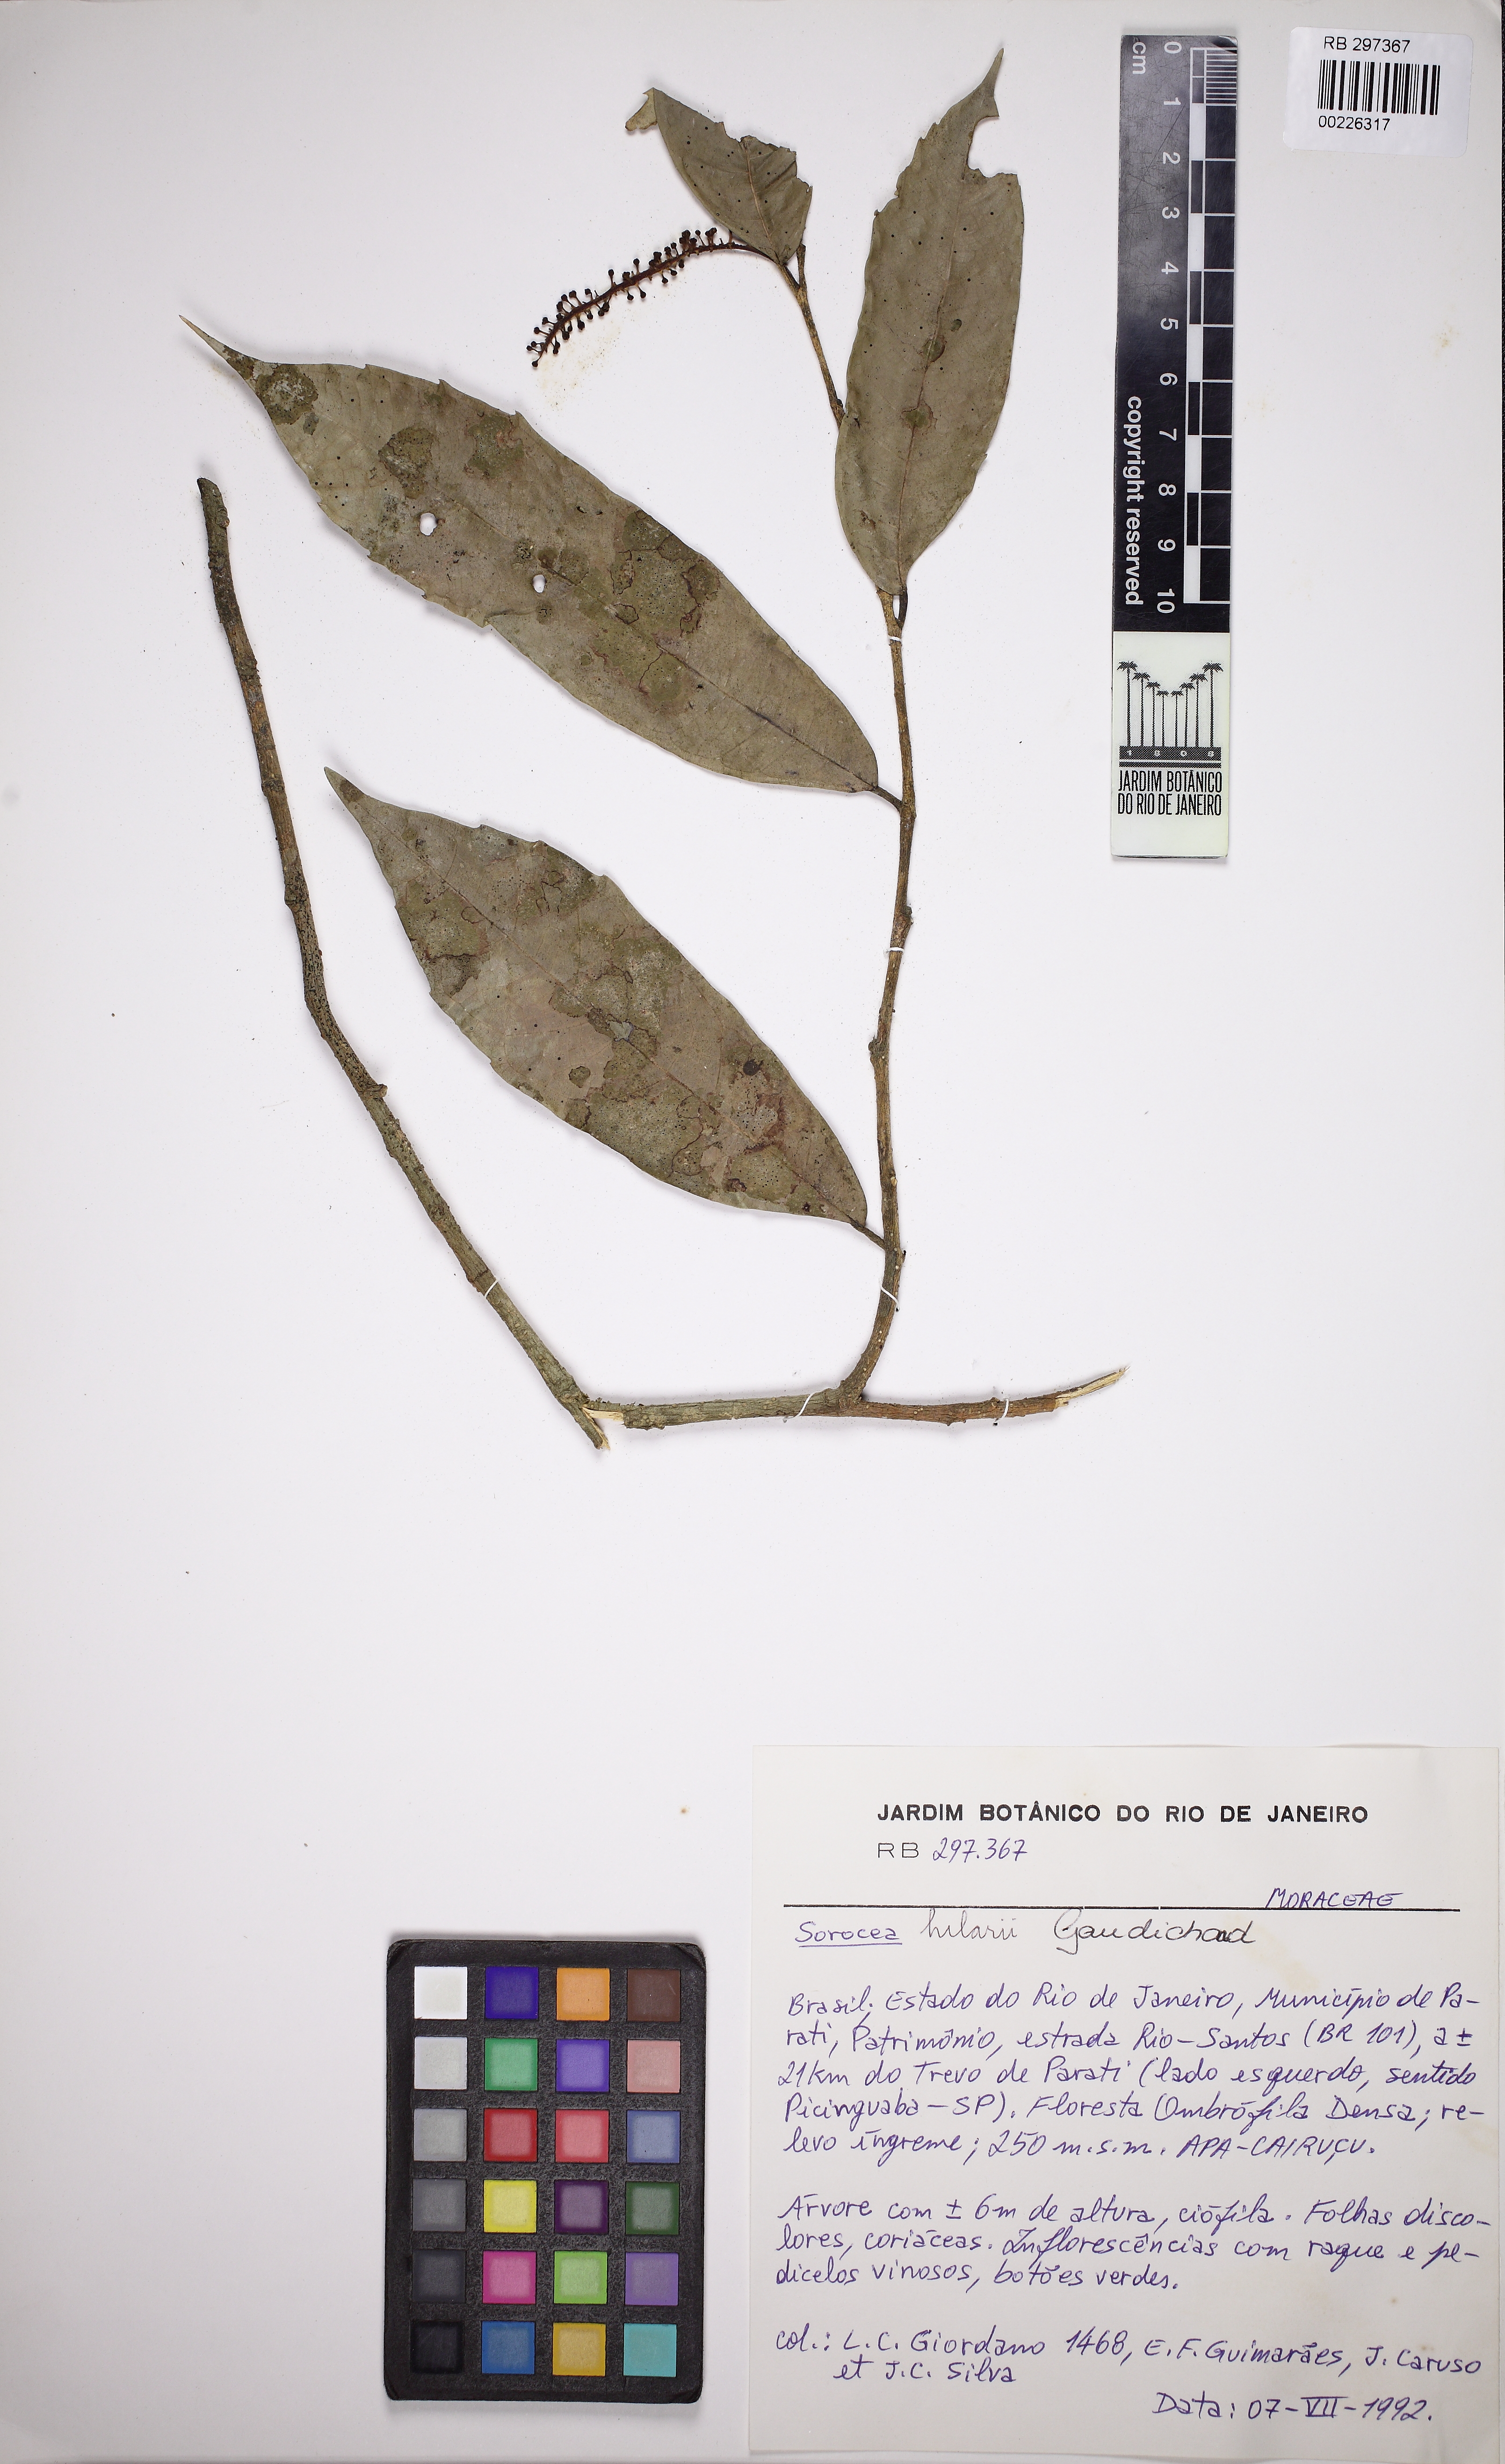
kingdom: Plantae
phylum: Tracheophyta
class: Magnoliopsida
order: Rosales
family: Moraceae
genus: Sorocea
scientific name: Sorocea hilarii
